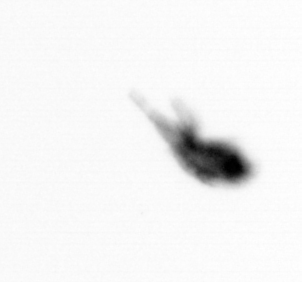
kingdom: Animalia
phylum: Arthropoda
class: Copepoda
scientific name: Copepoda
